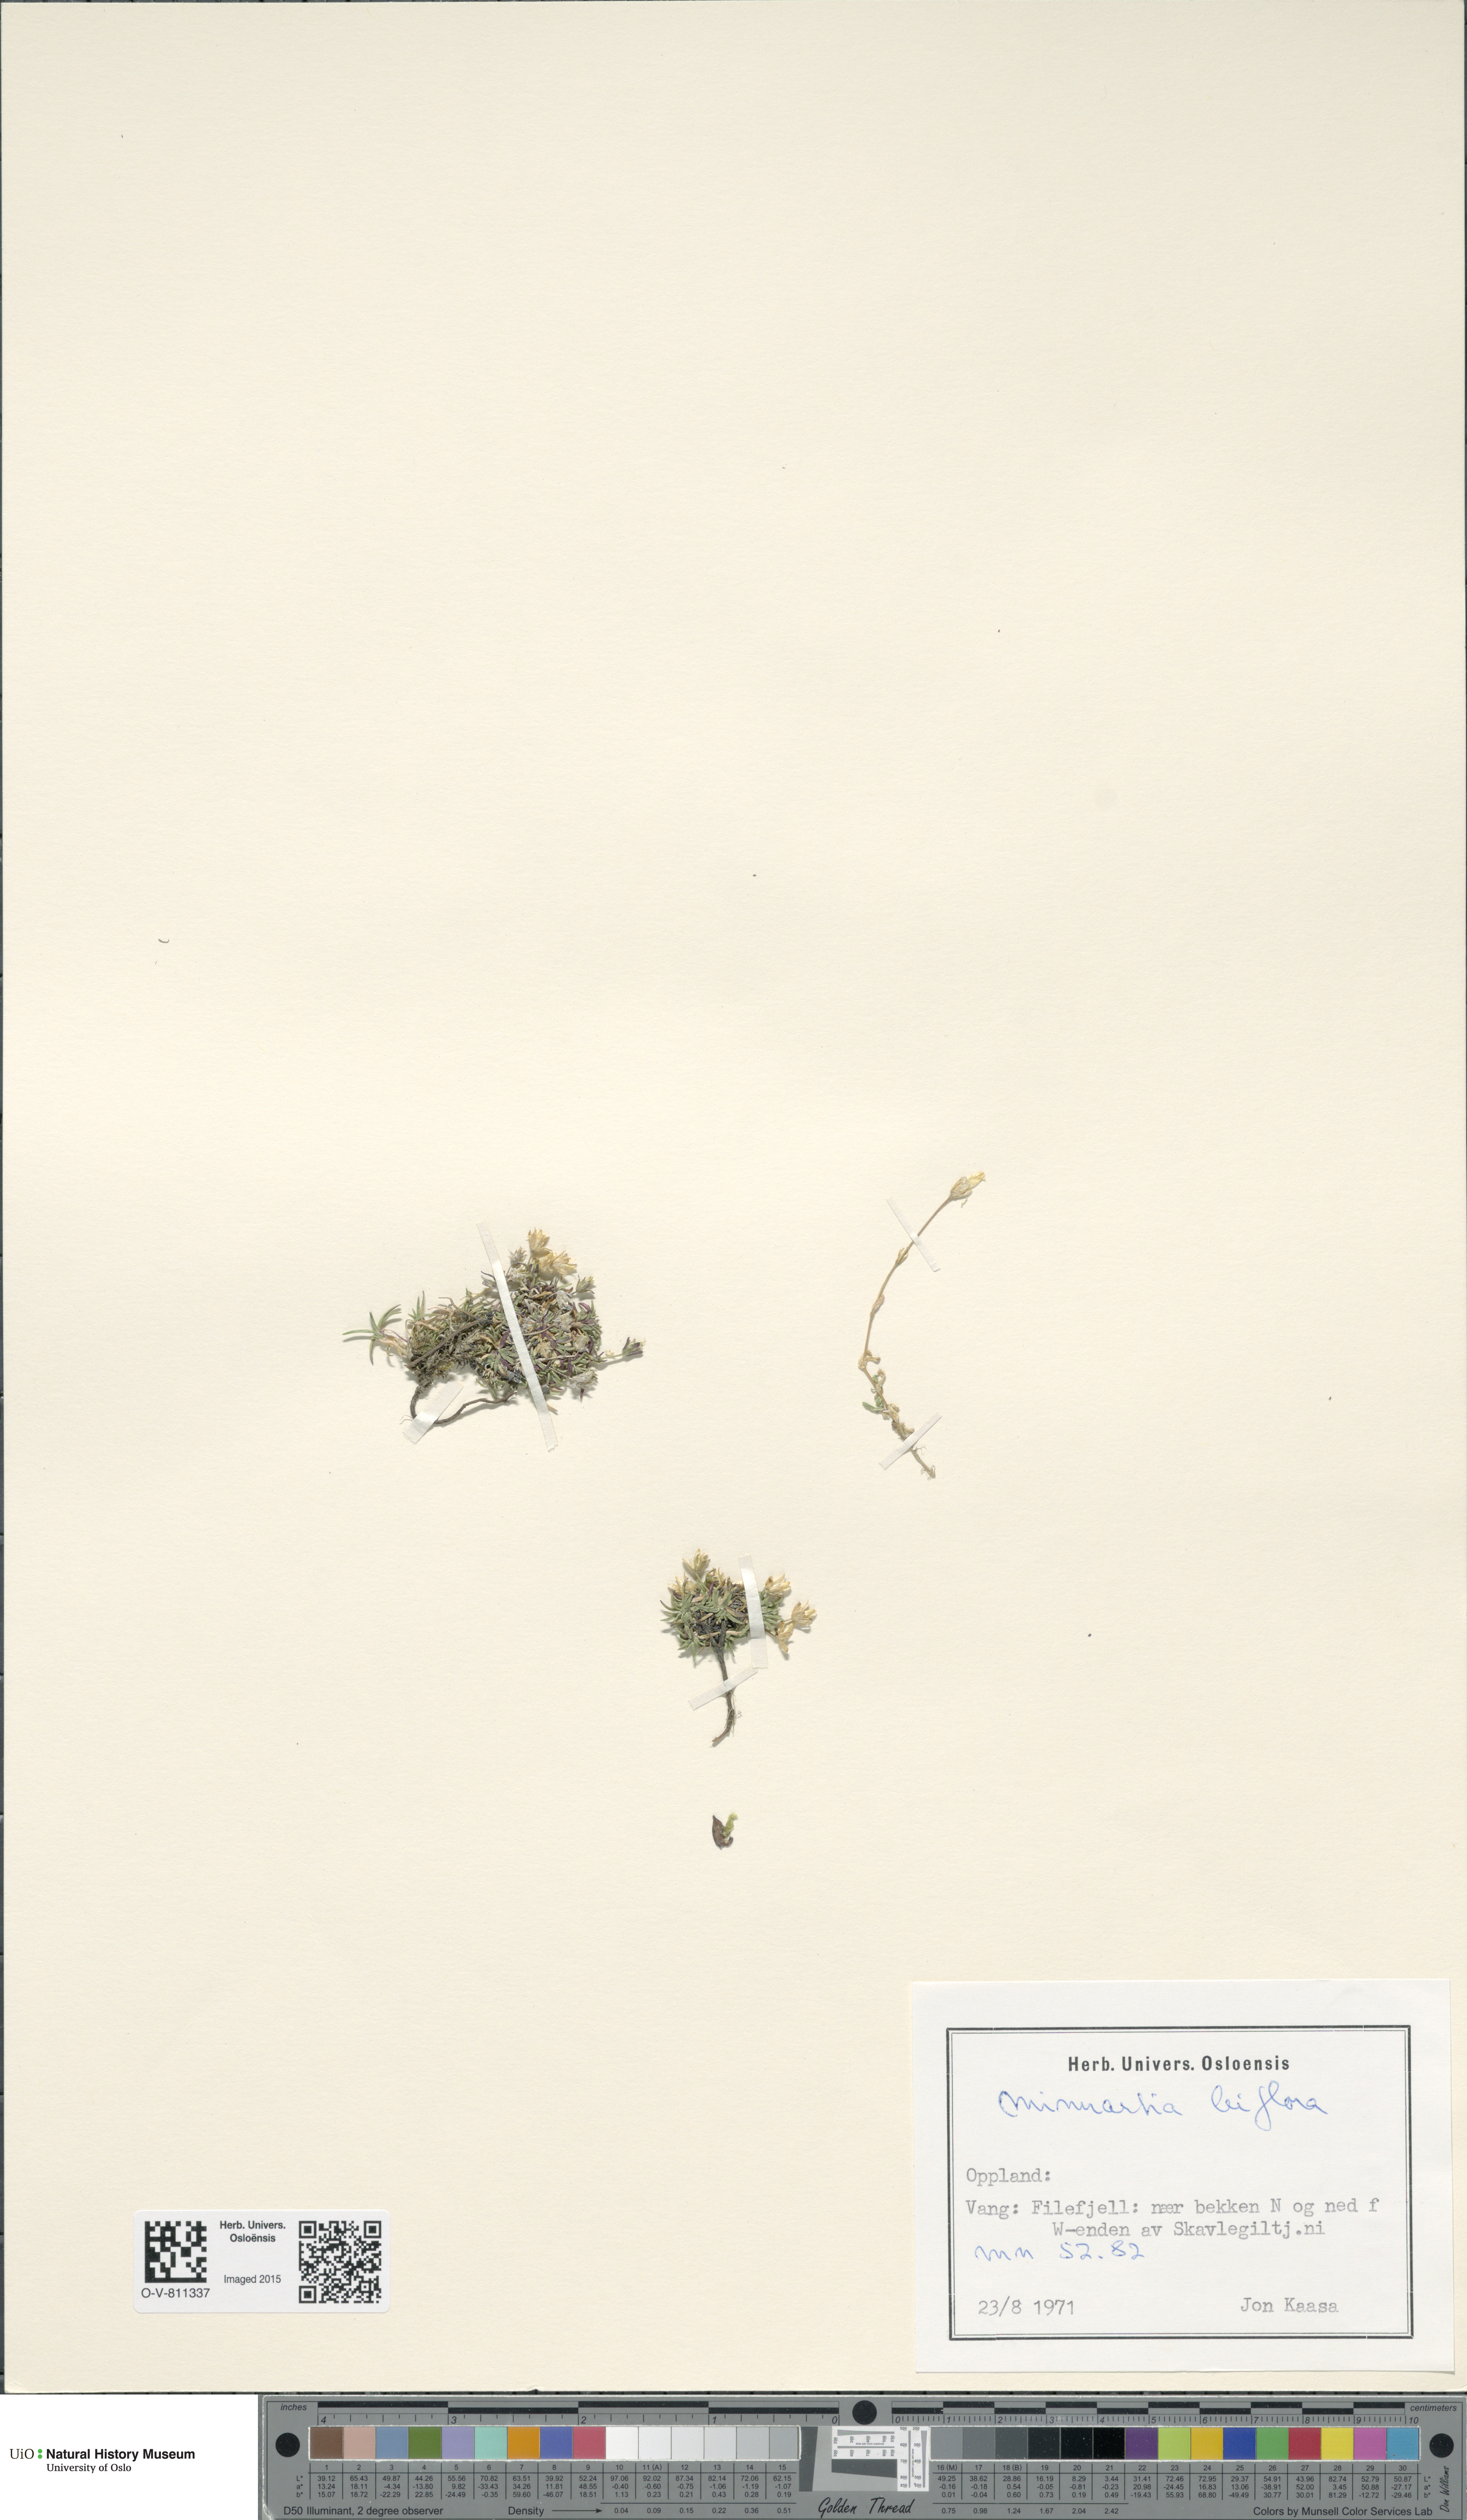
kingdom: Plantae
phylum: Tracheophyta
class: Magnoliopsida
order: Caryophyllales
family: Caryophyllaceae
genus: Cherleria
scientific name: Cherleria biflora
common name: Mountain sandwort
